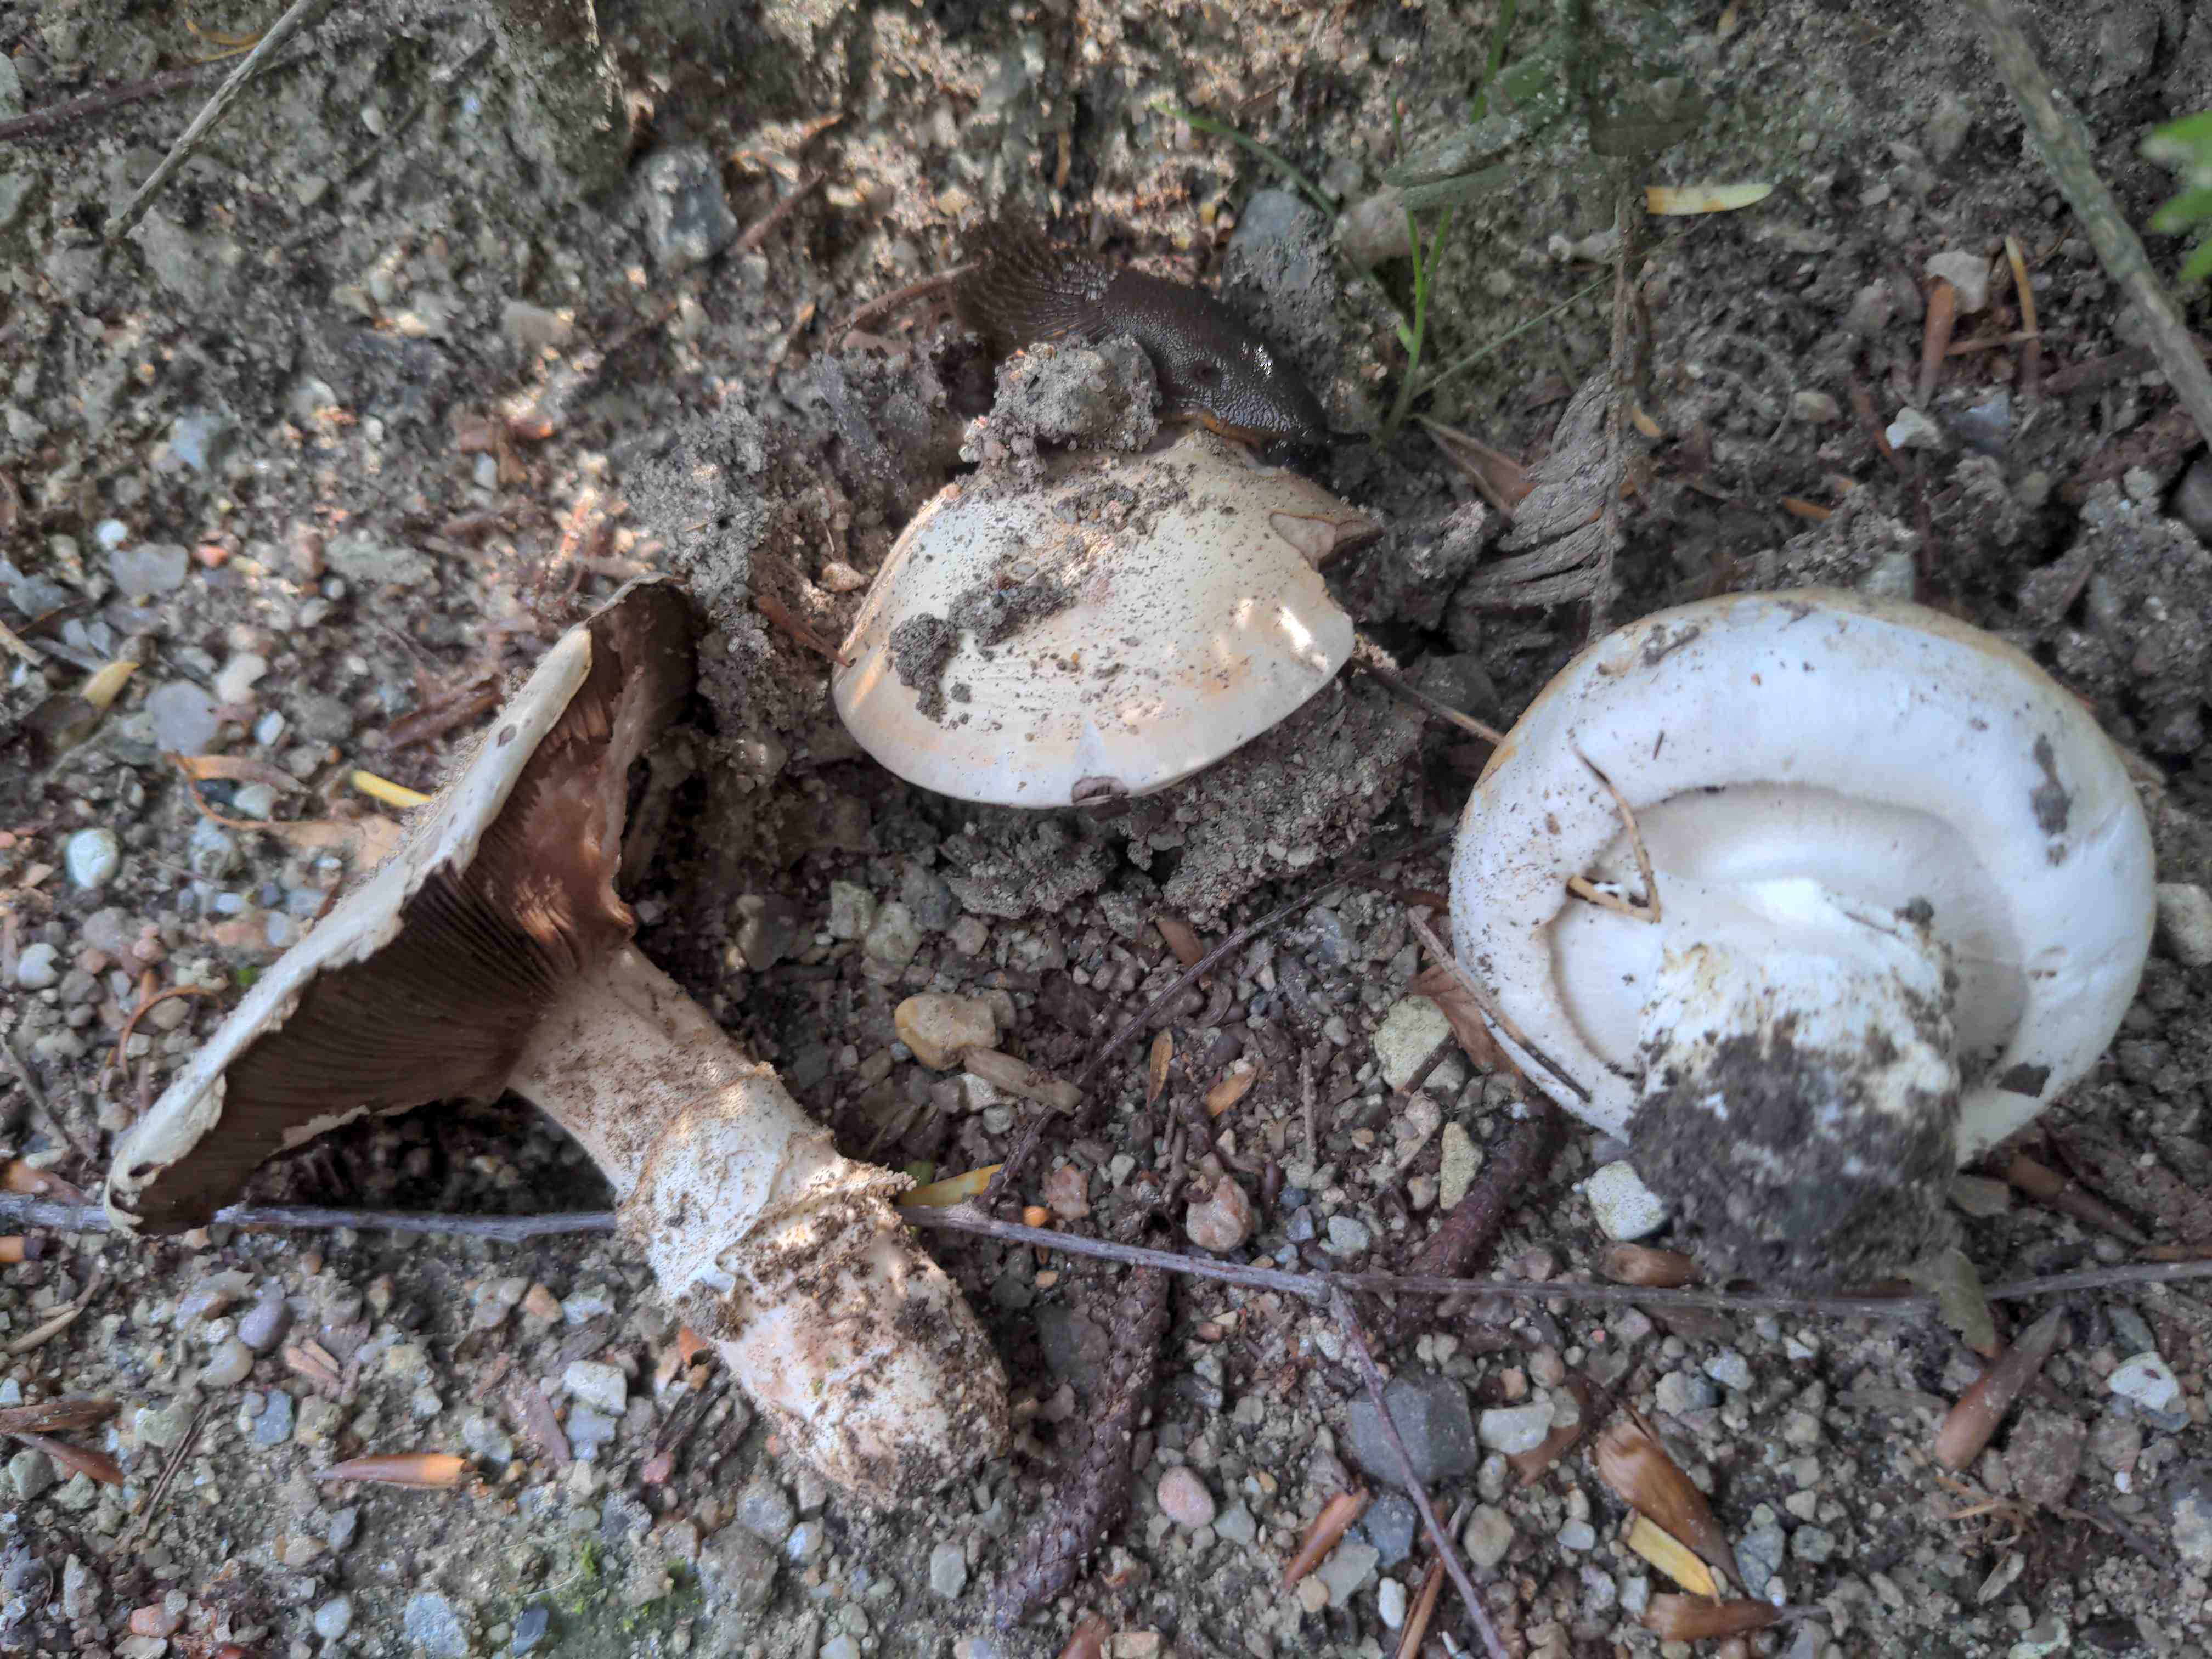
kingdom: Fungi
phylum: Basidiomycota
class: Agaricomycetes
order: Agaricales
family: Agaricaceae
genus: Agaricus
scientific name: Agaricus bitorquis
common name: vej-champignon
